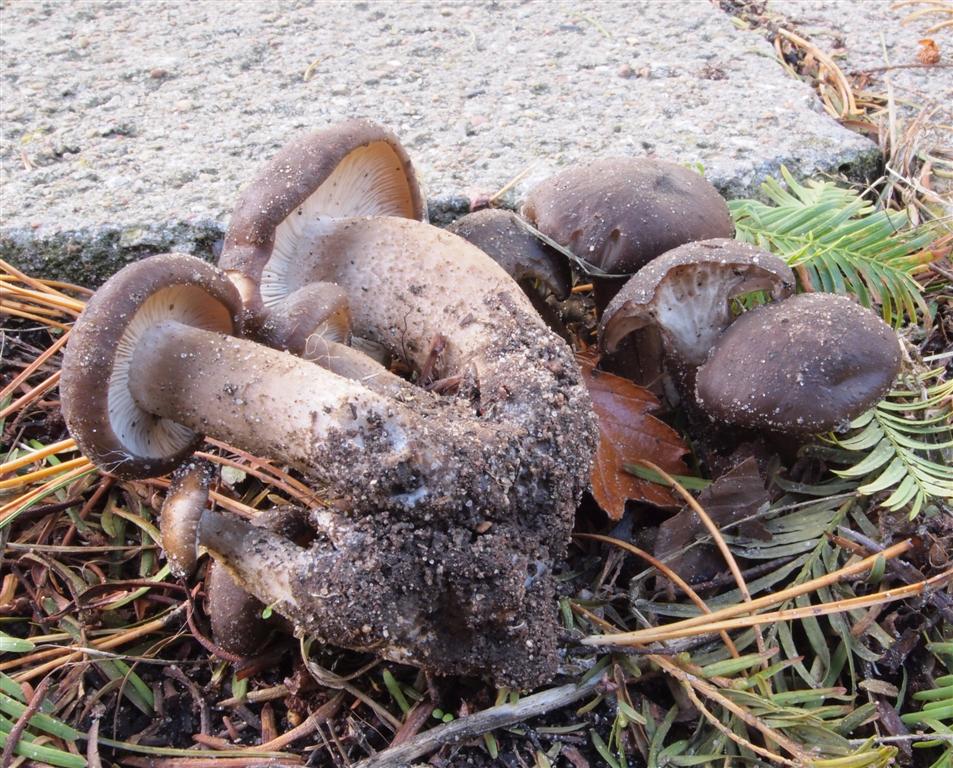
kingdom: Fungi
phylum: Basidiomycota
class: Agaricomycetes
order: Agaricales
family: Lyophyllaceae
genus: Lyophyllum
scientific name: Lyophyllum decastes
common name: Clustered domecap
